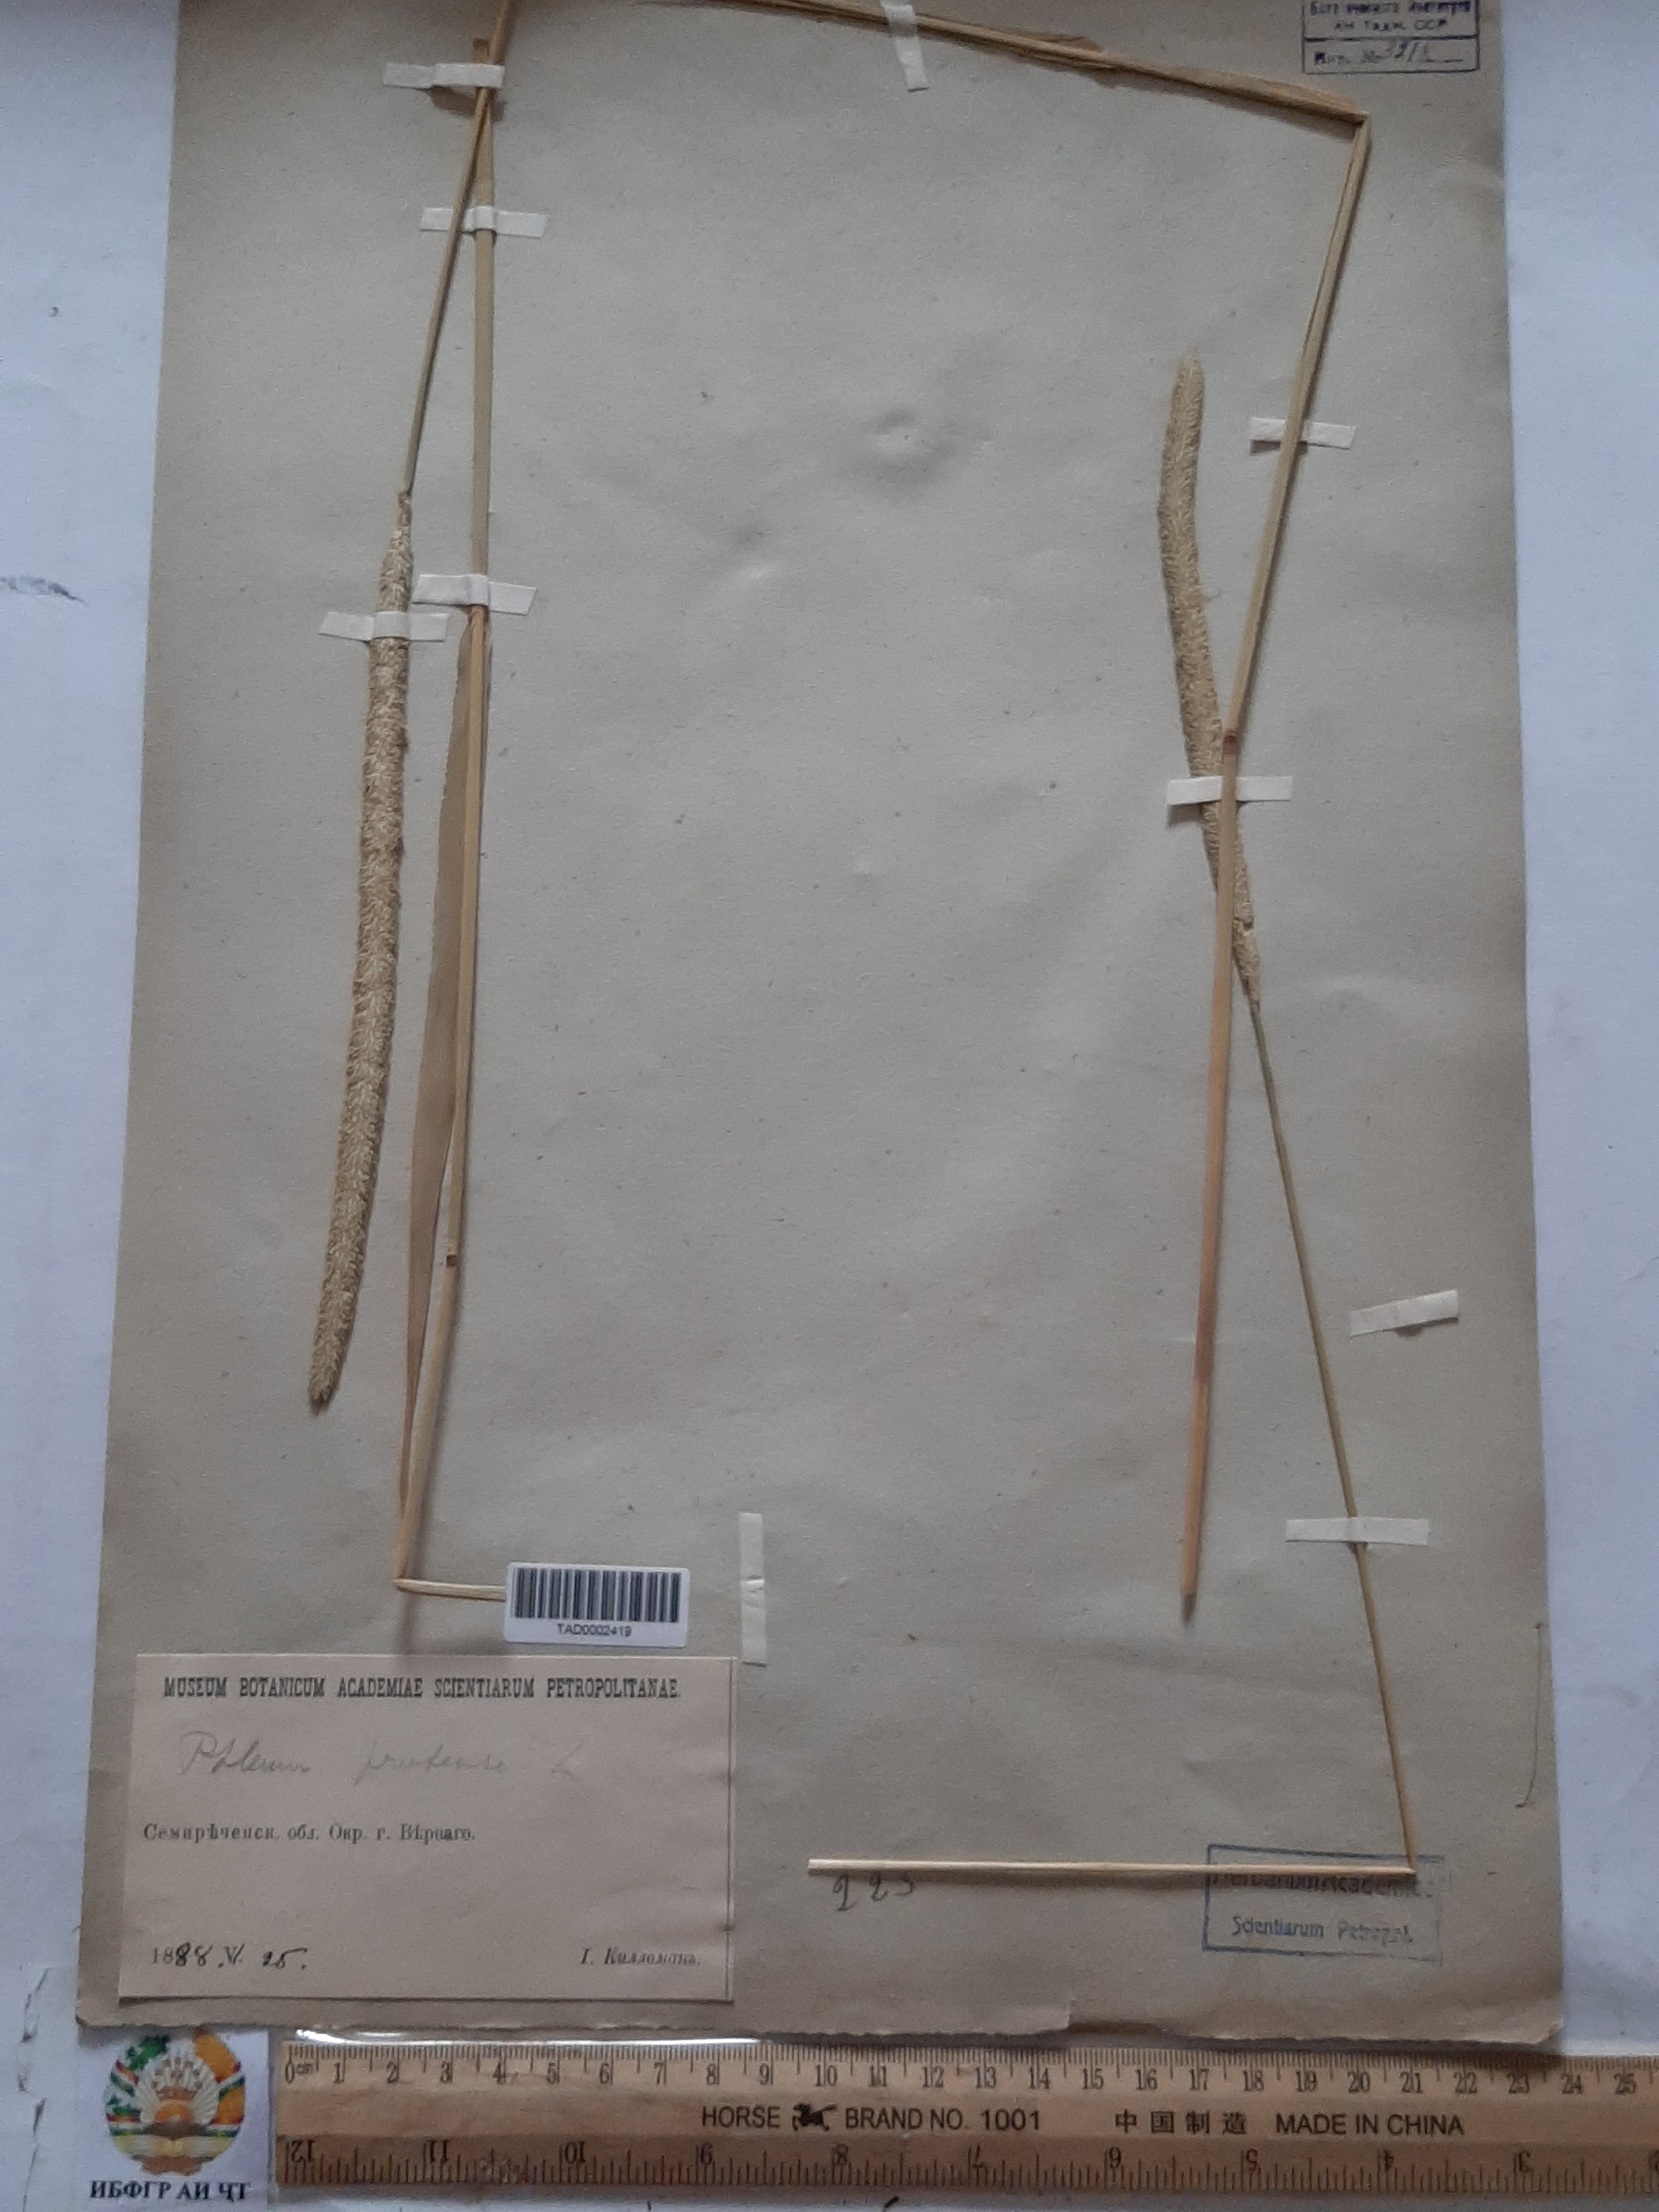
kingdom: Plantae
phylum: Tracheophyta
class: Liliopsida
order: Poales
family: Poaceae
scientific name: Poaceae
